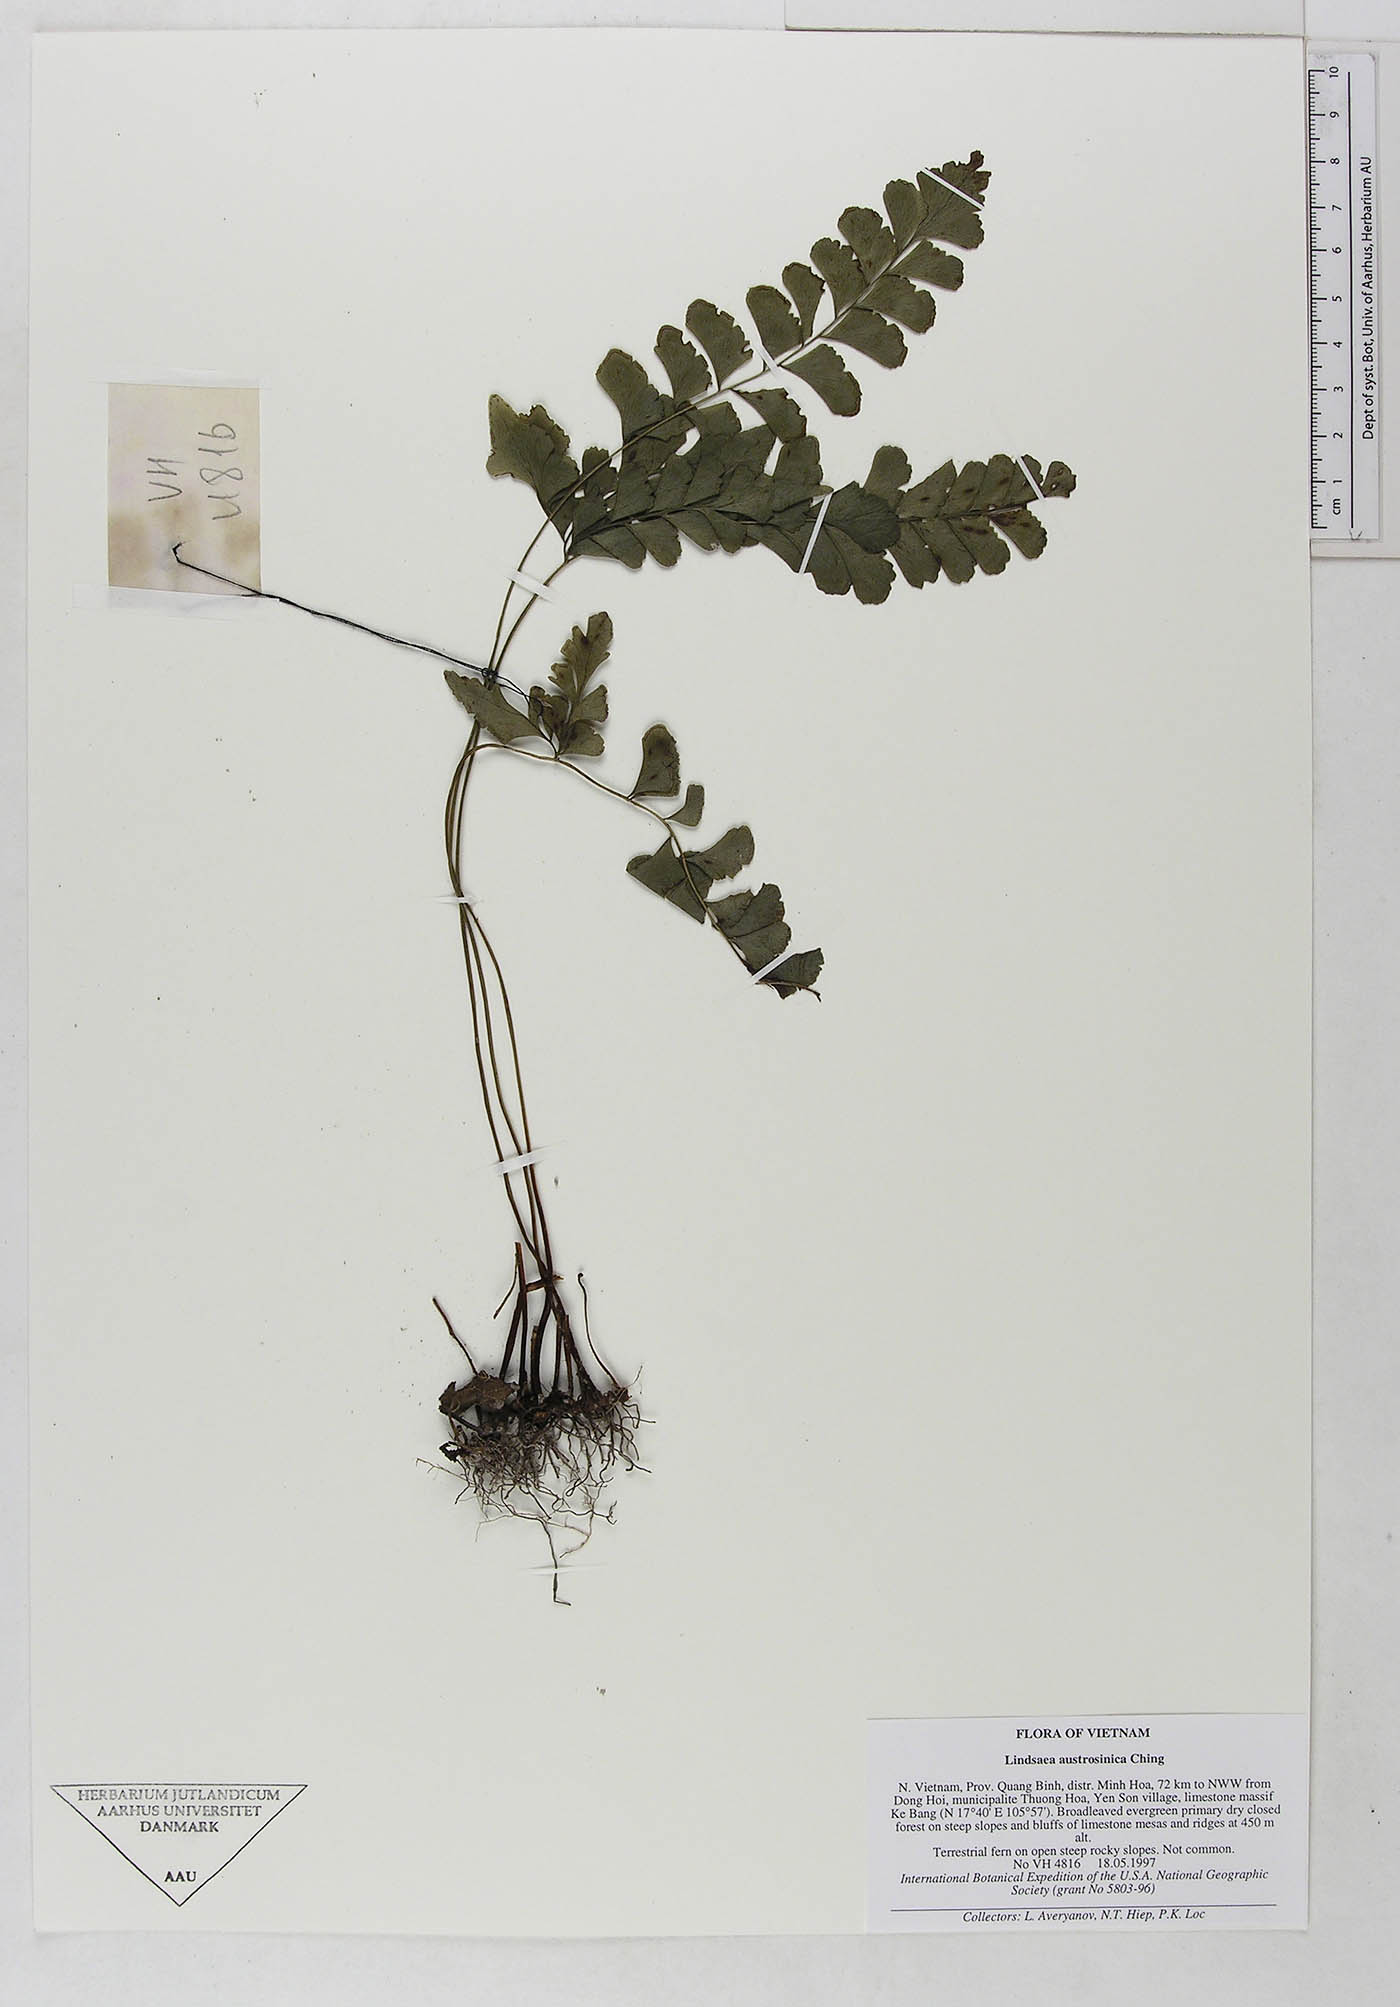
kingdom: Plantae
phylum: Tracheophyta
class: Polypodiopsida
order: Polypodiales
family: Lindsaeaceae
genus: Lindsaea
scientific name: Lindsaea austrosinica
